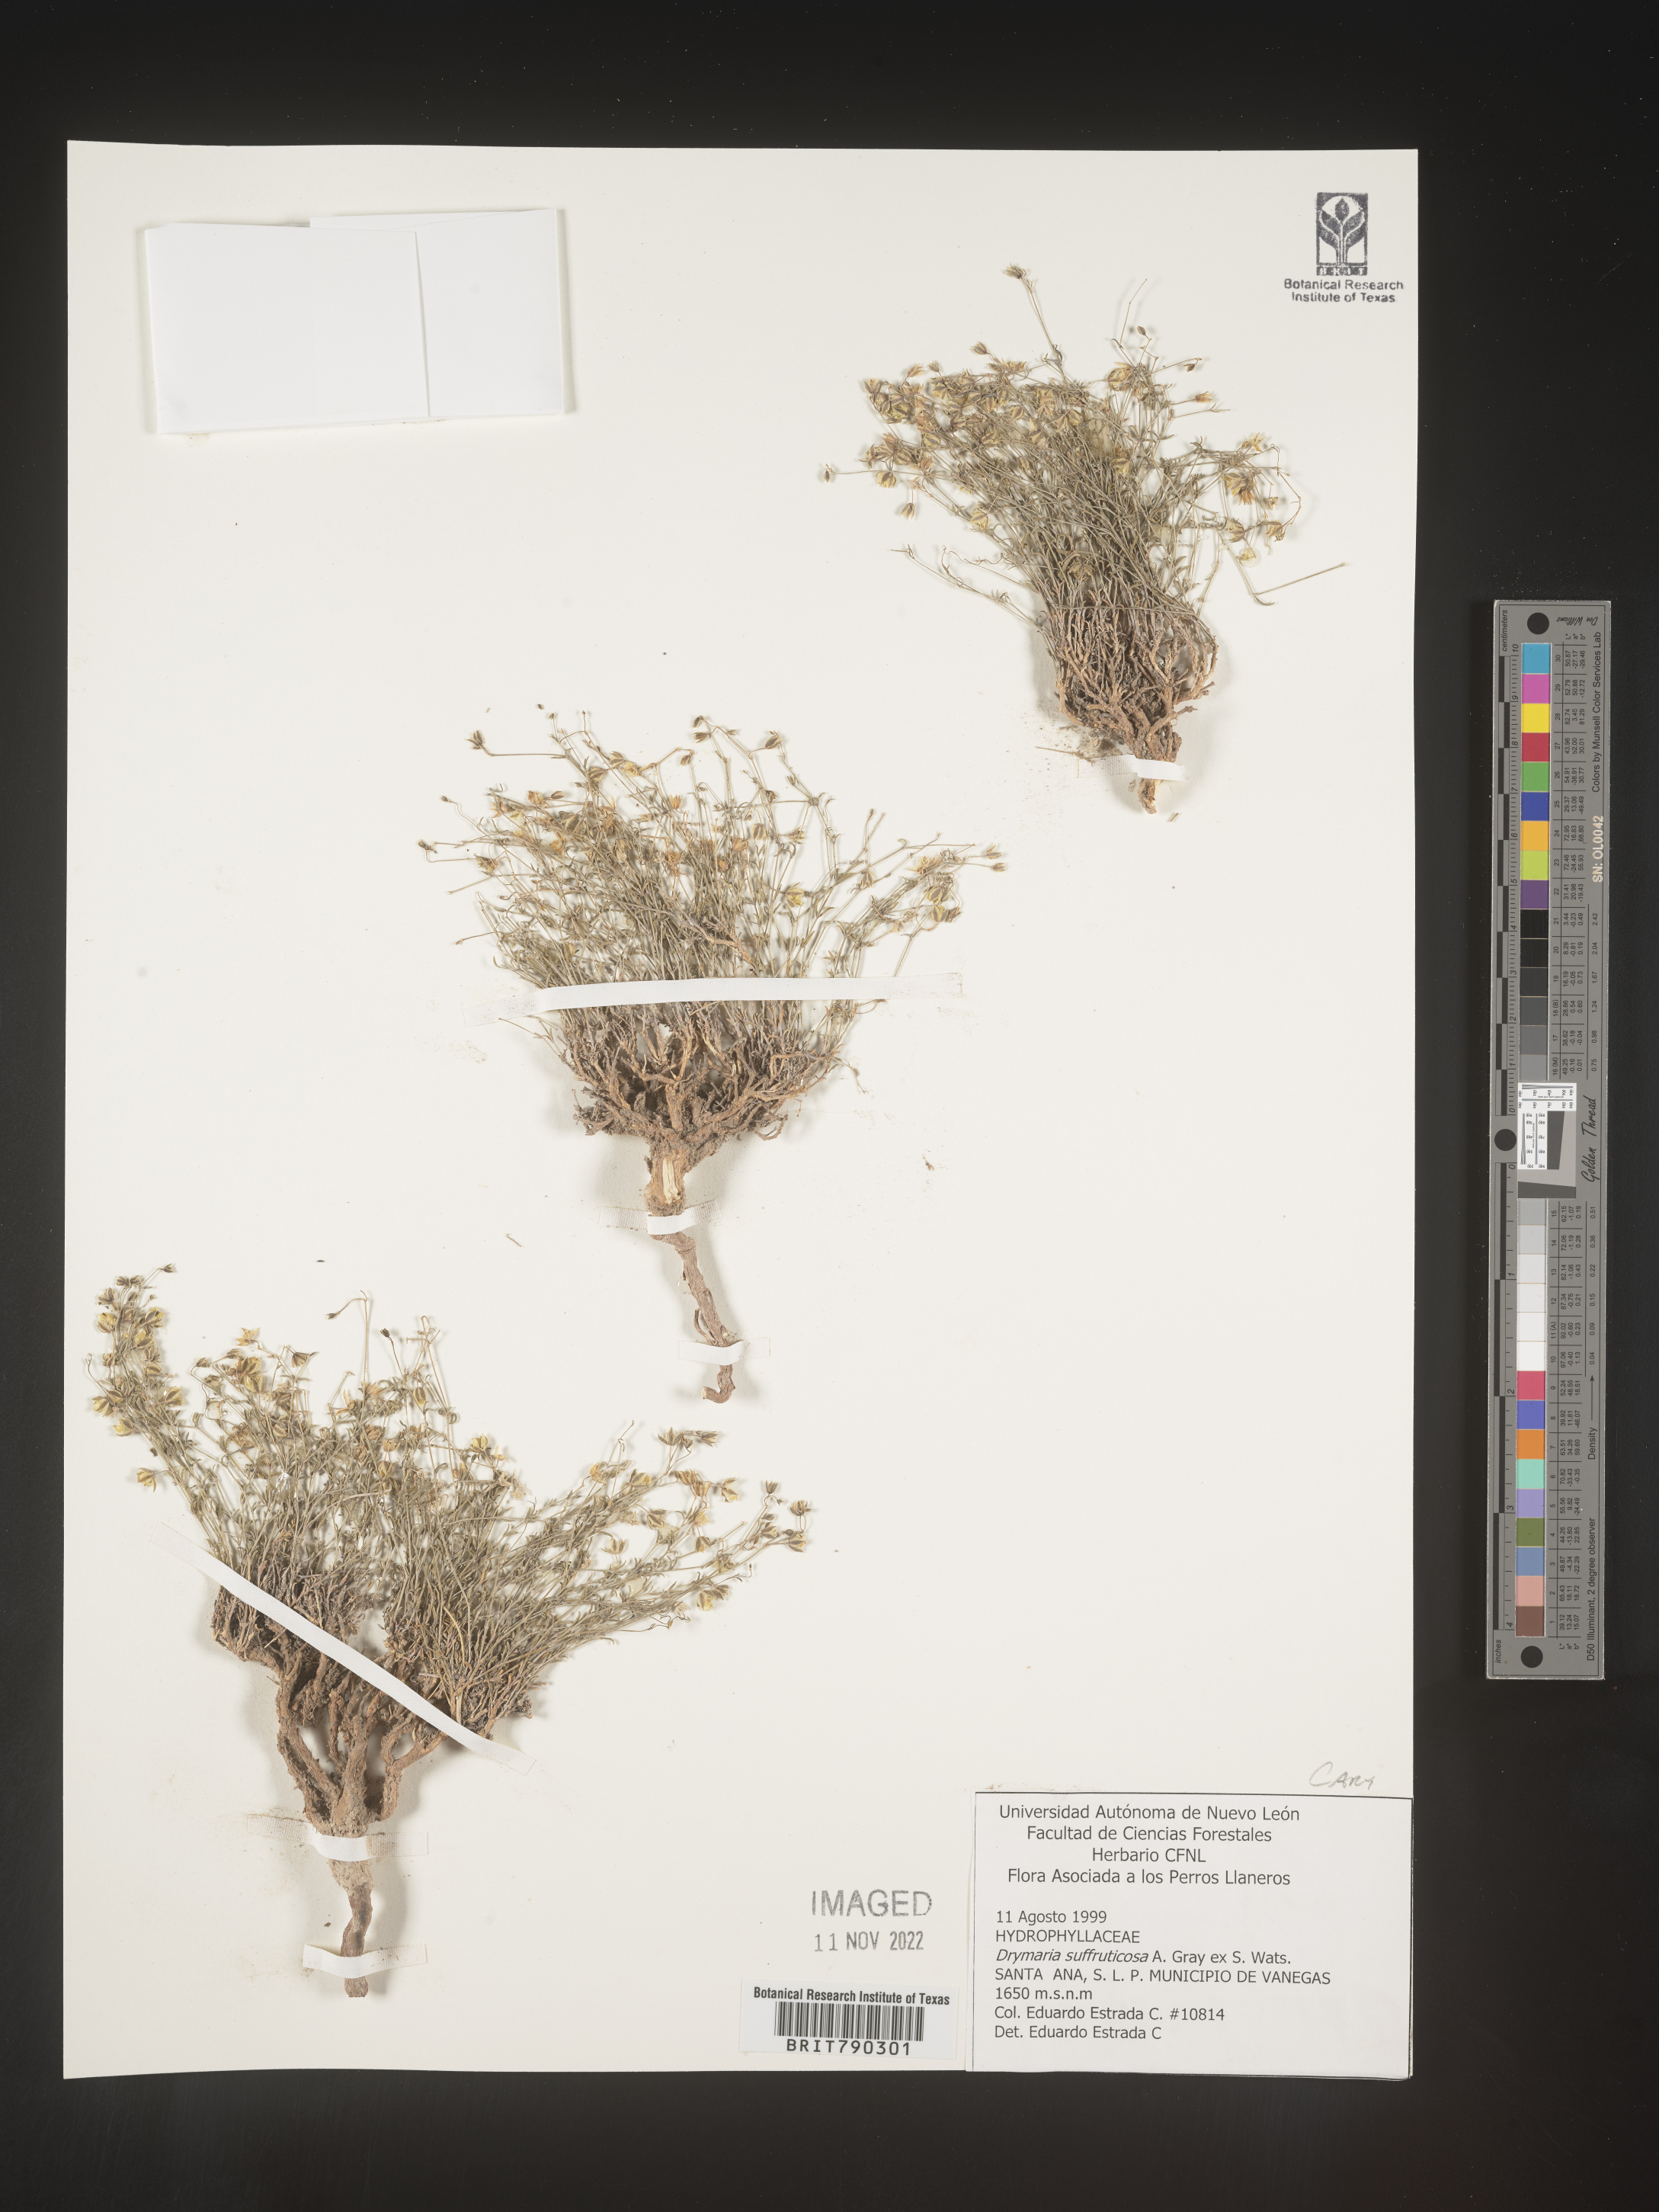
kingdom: Plantae
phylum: Tracheophyta
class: Magnoliopsida
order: Caryophyllales
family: Caryophyllaceae
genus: Drymaria
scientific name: Drymaria
